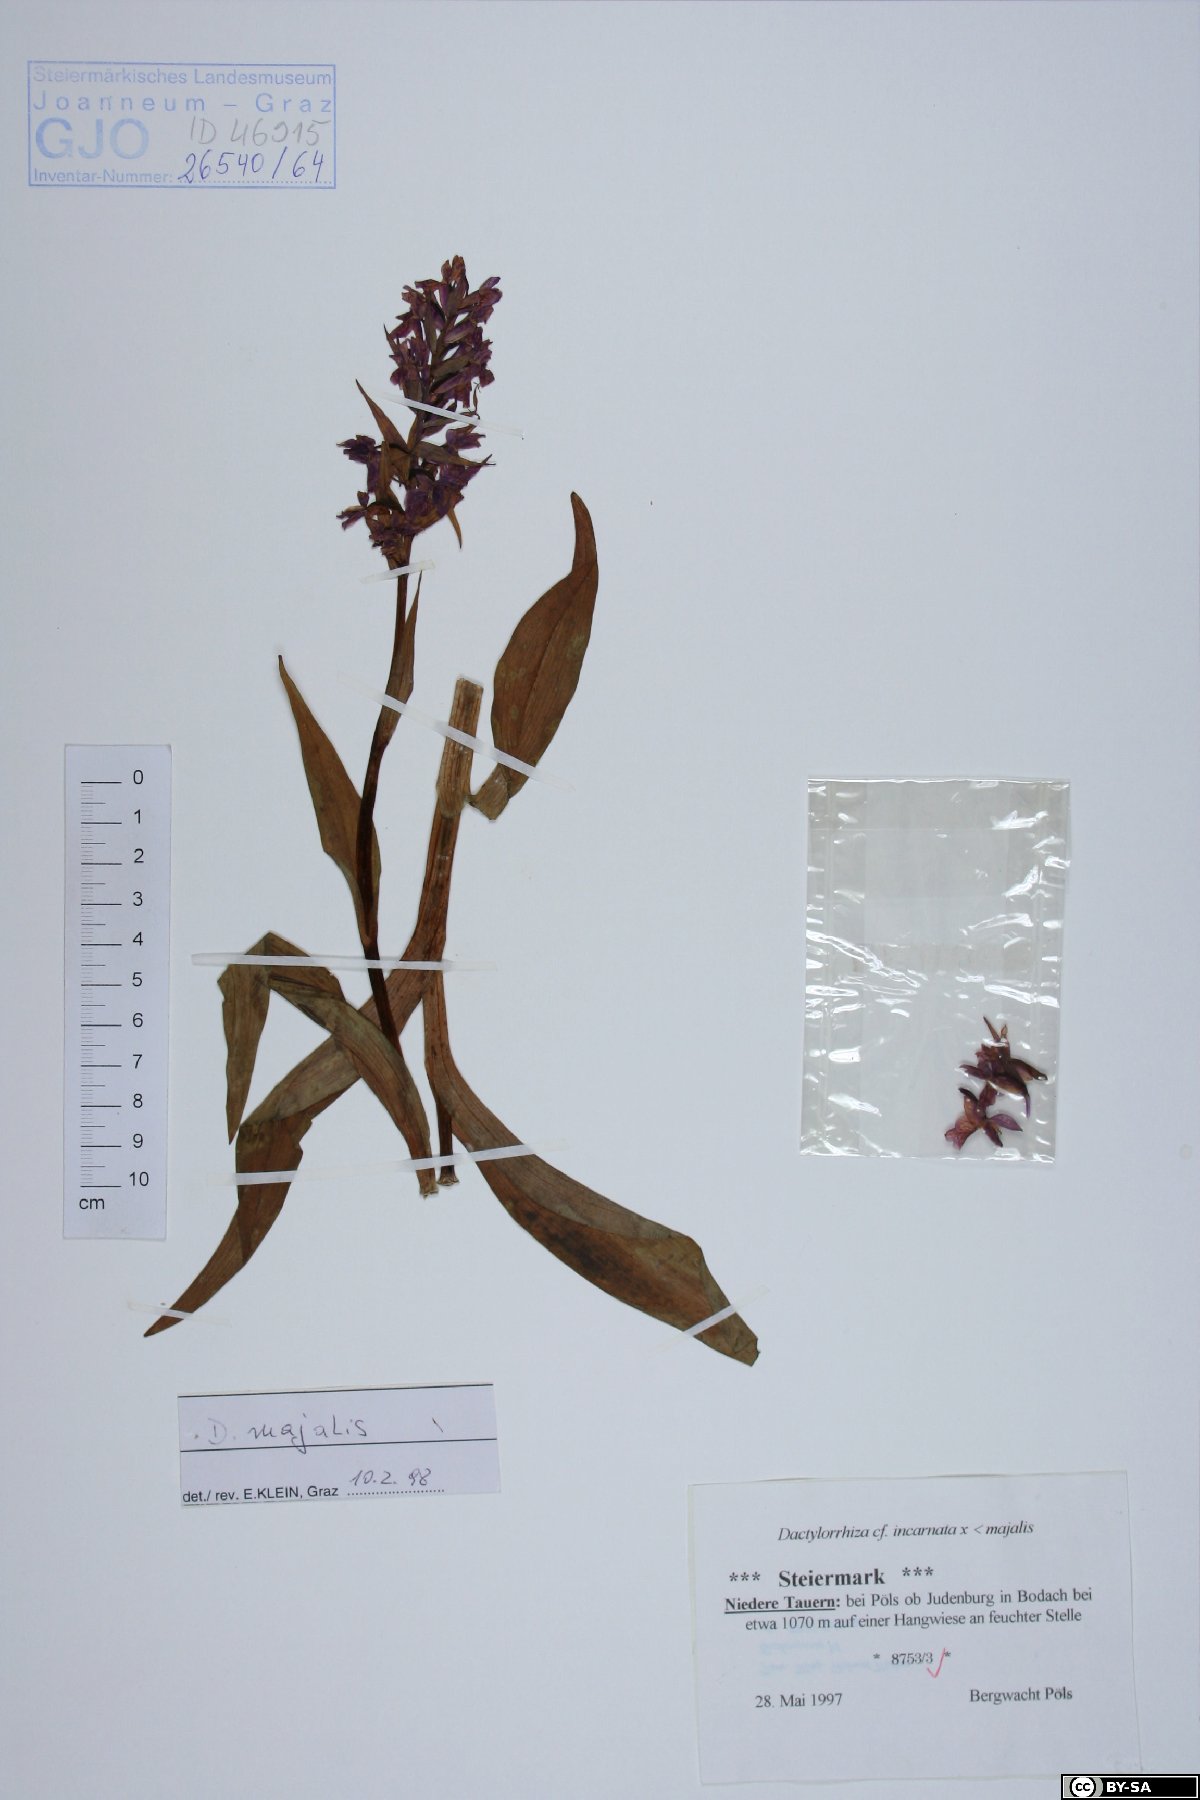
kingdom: Plantae
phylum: Tracheophyta
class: Liliopsida
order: Asparagales
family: Orchidaceae
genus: Dactylorhiza
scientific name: Dactylorhiza majalis
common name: Marsh orchid
